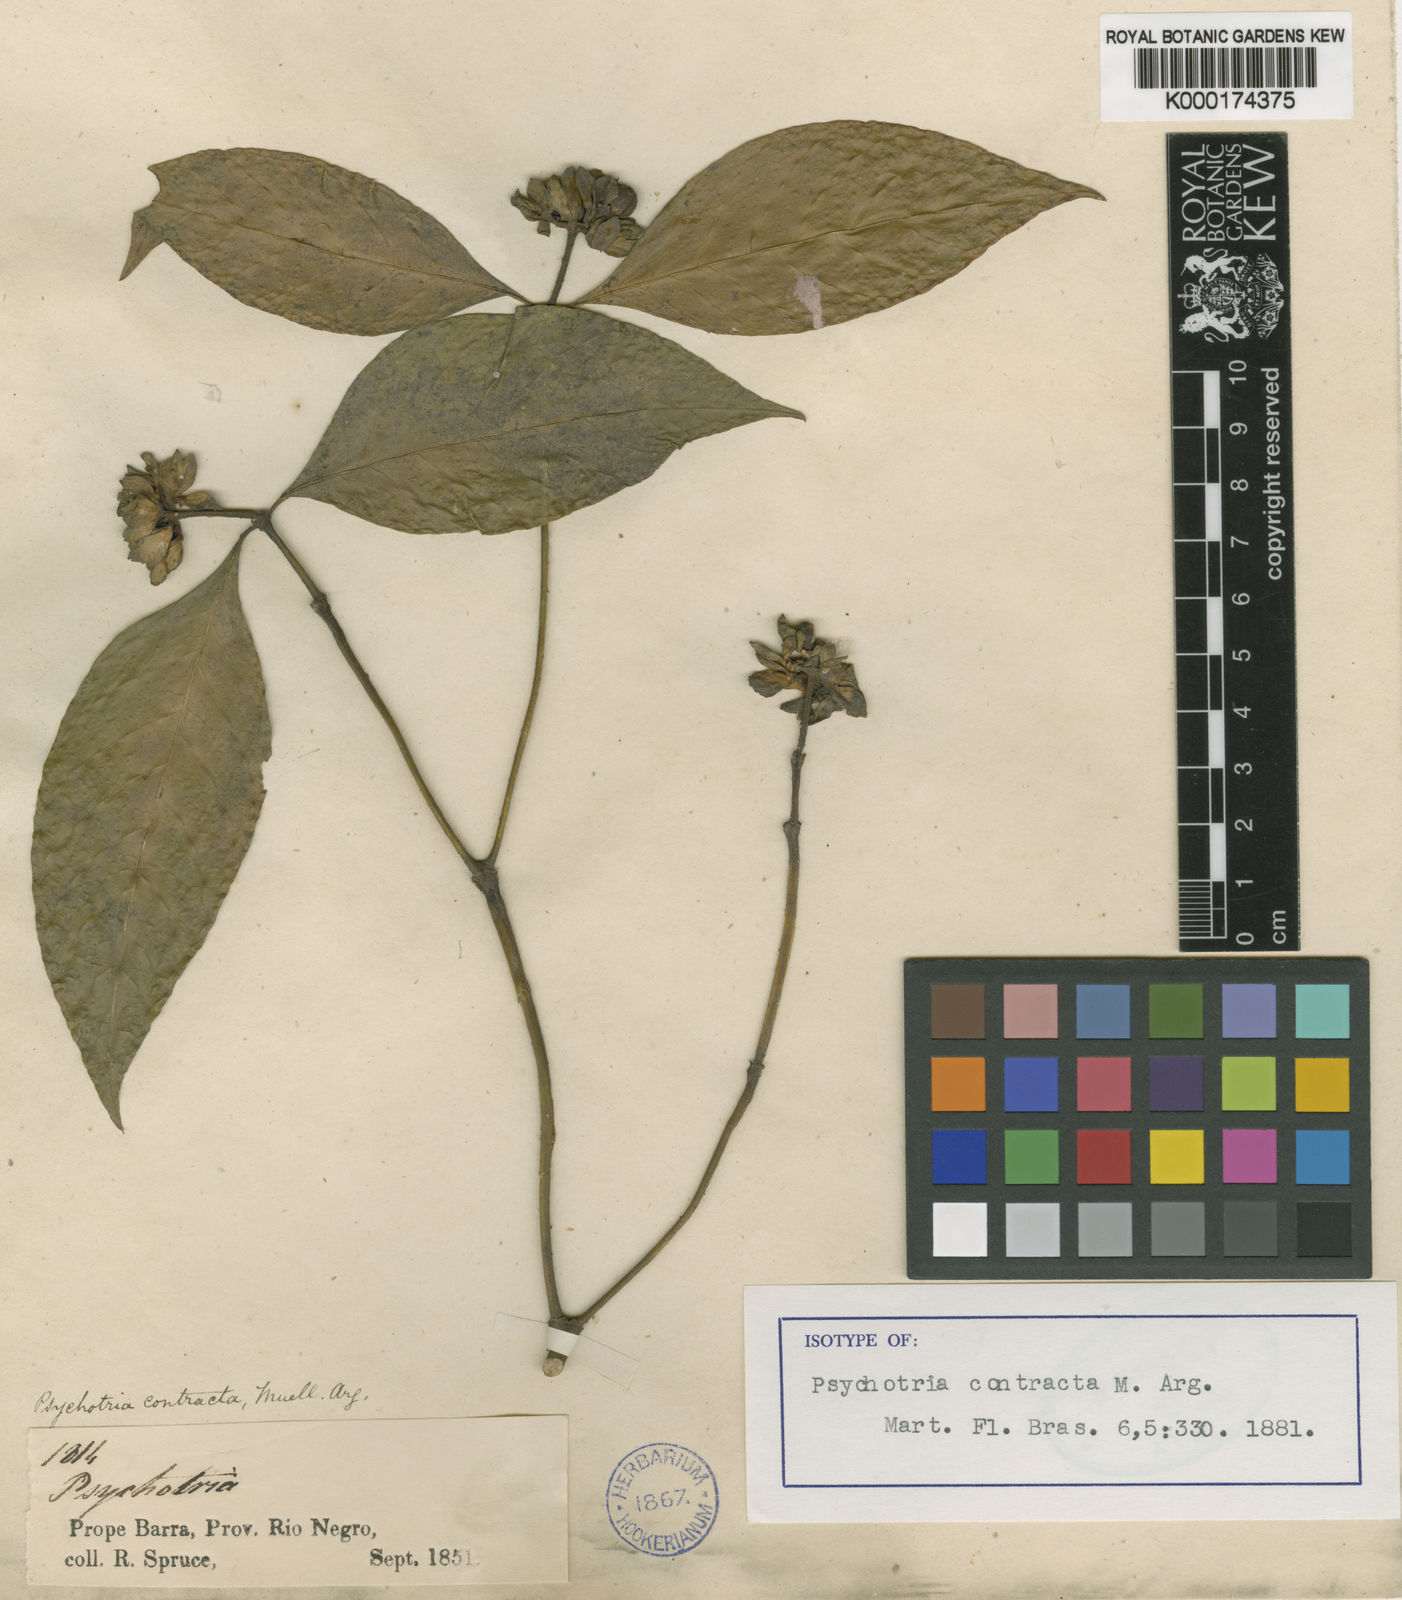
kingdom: Plantae
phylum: Tracheophyta
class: Magnoliopsida
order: Gentianales
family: Rubiaceae
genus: Psychotria
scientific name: Psychotria
